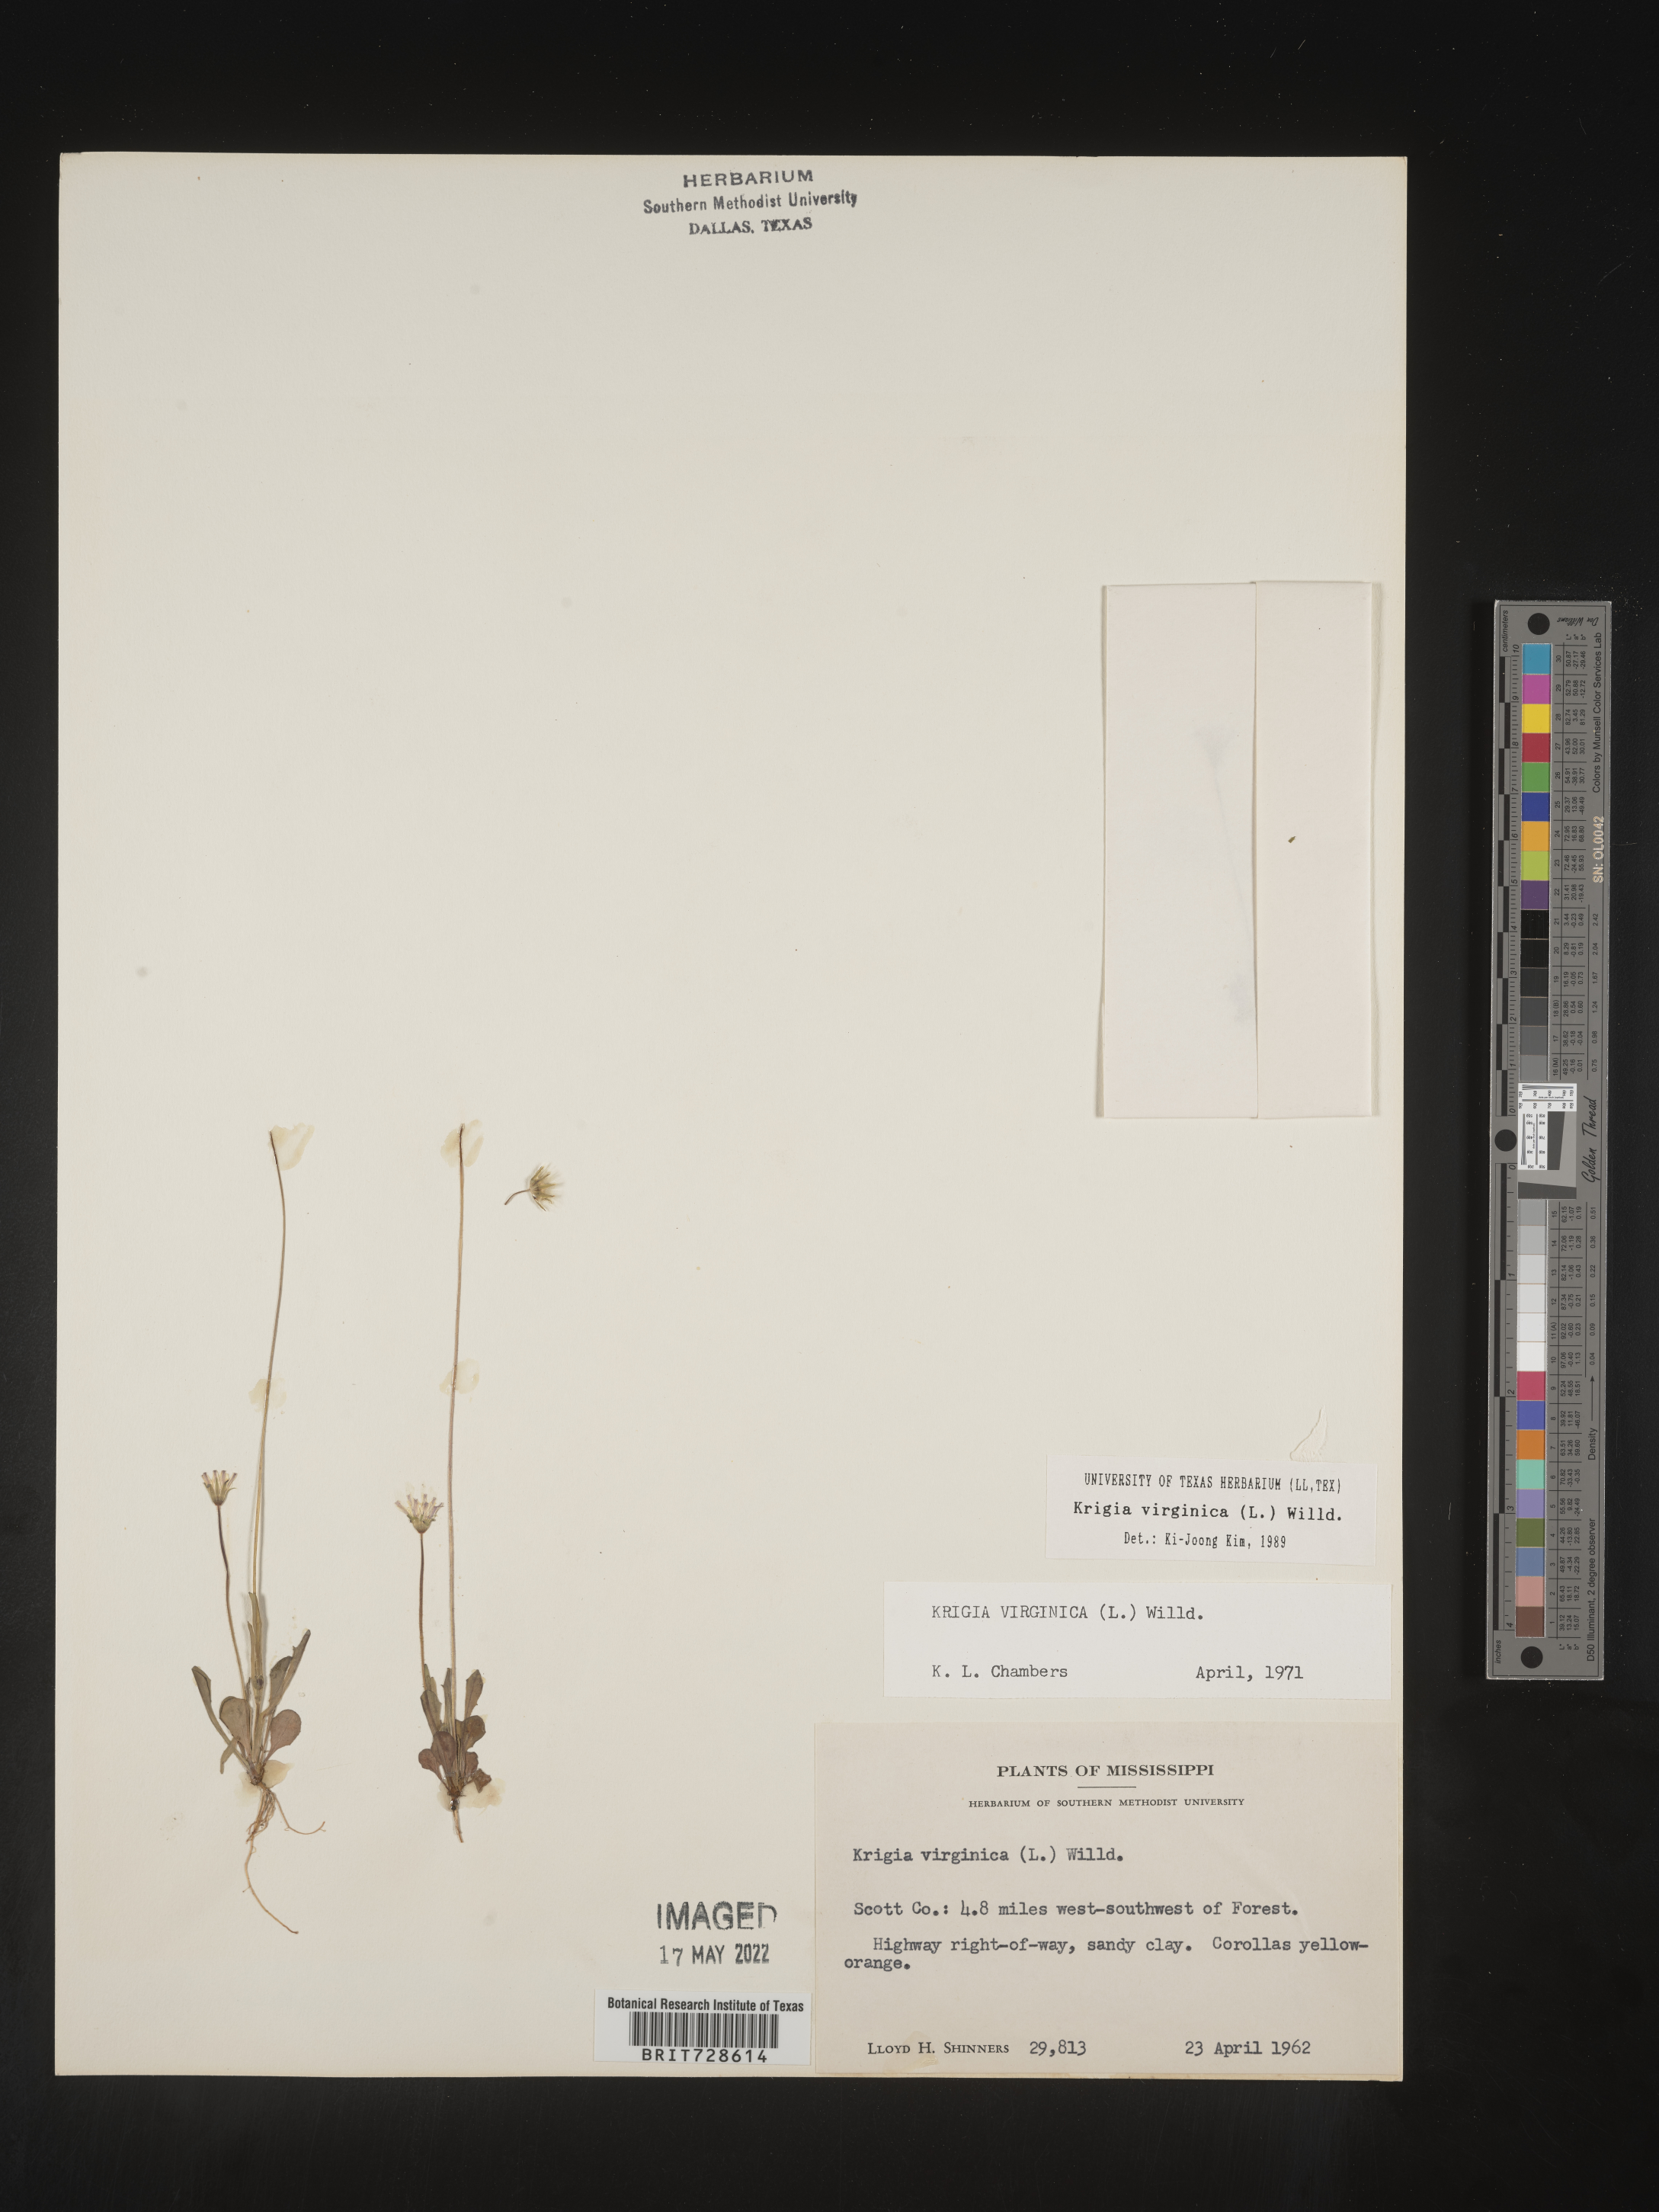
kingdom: Plantae
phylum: Tracheophyta
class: Magnoliopsida
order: Asterales
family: Asteraceae
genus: Krigia
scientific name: Krigia virginica
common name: Virginia dwarf-dandelion
